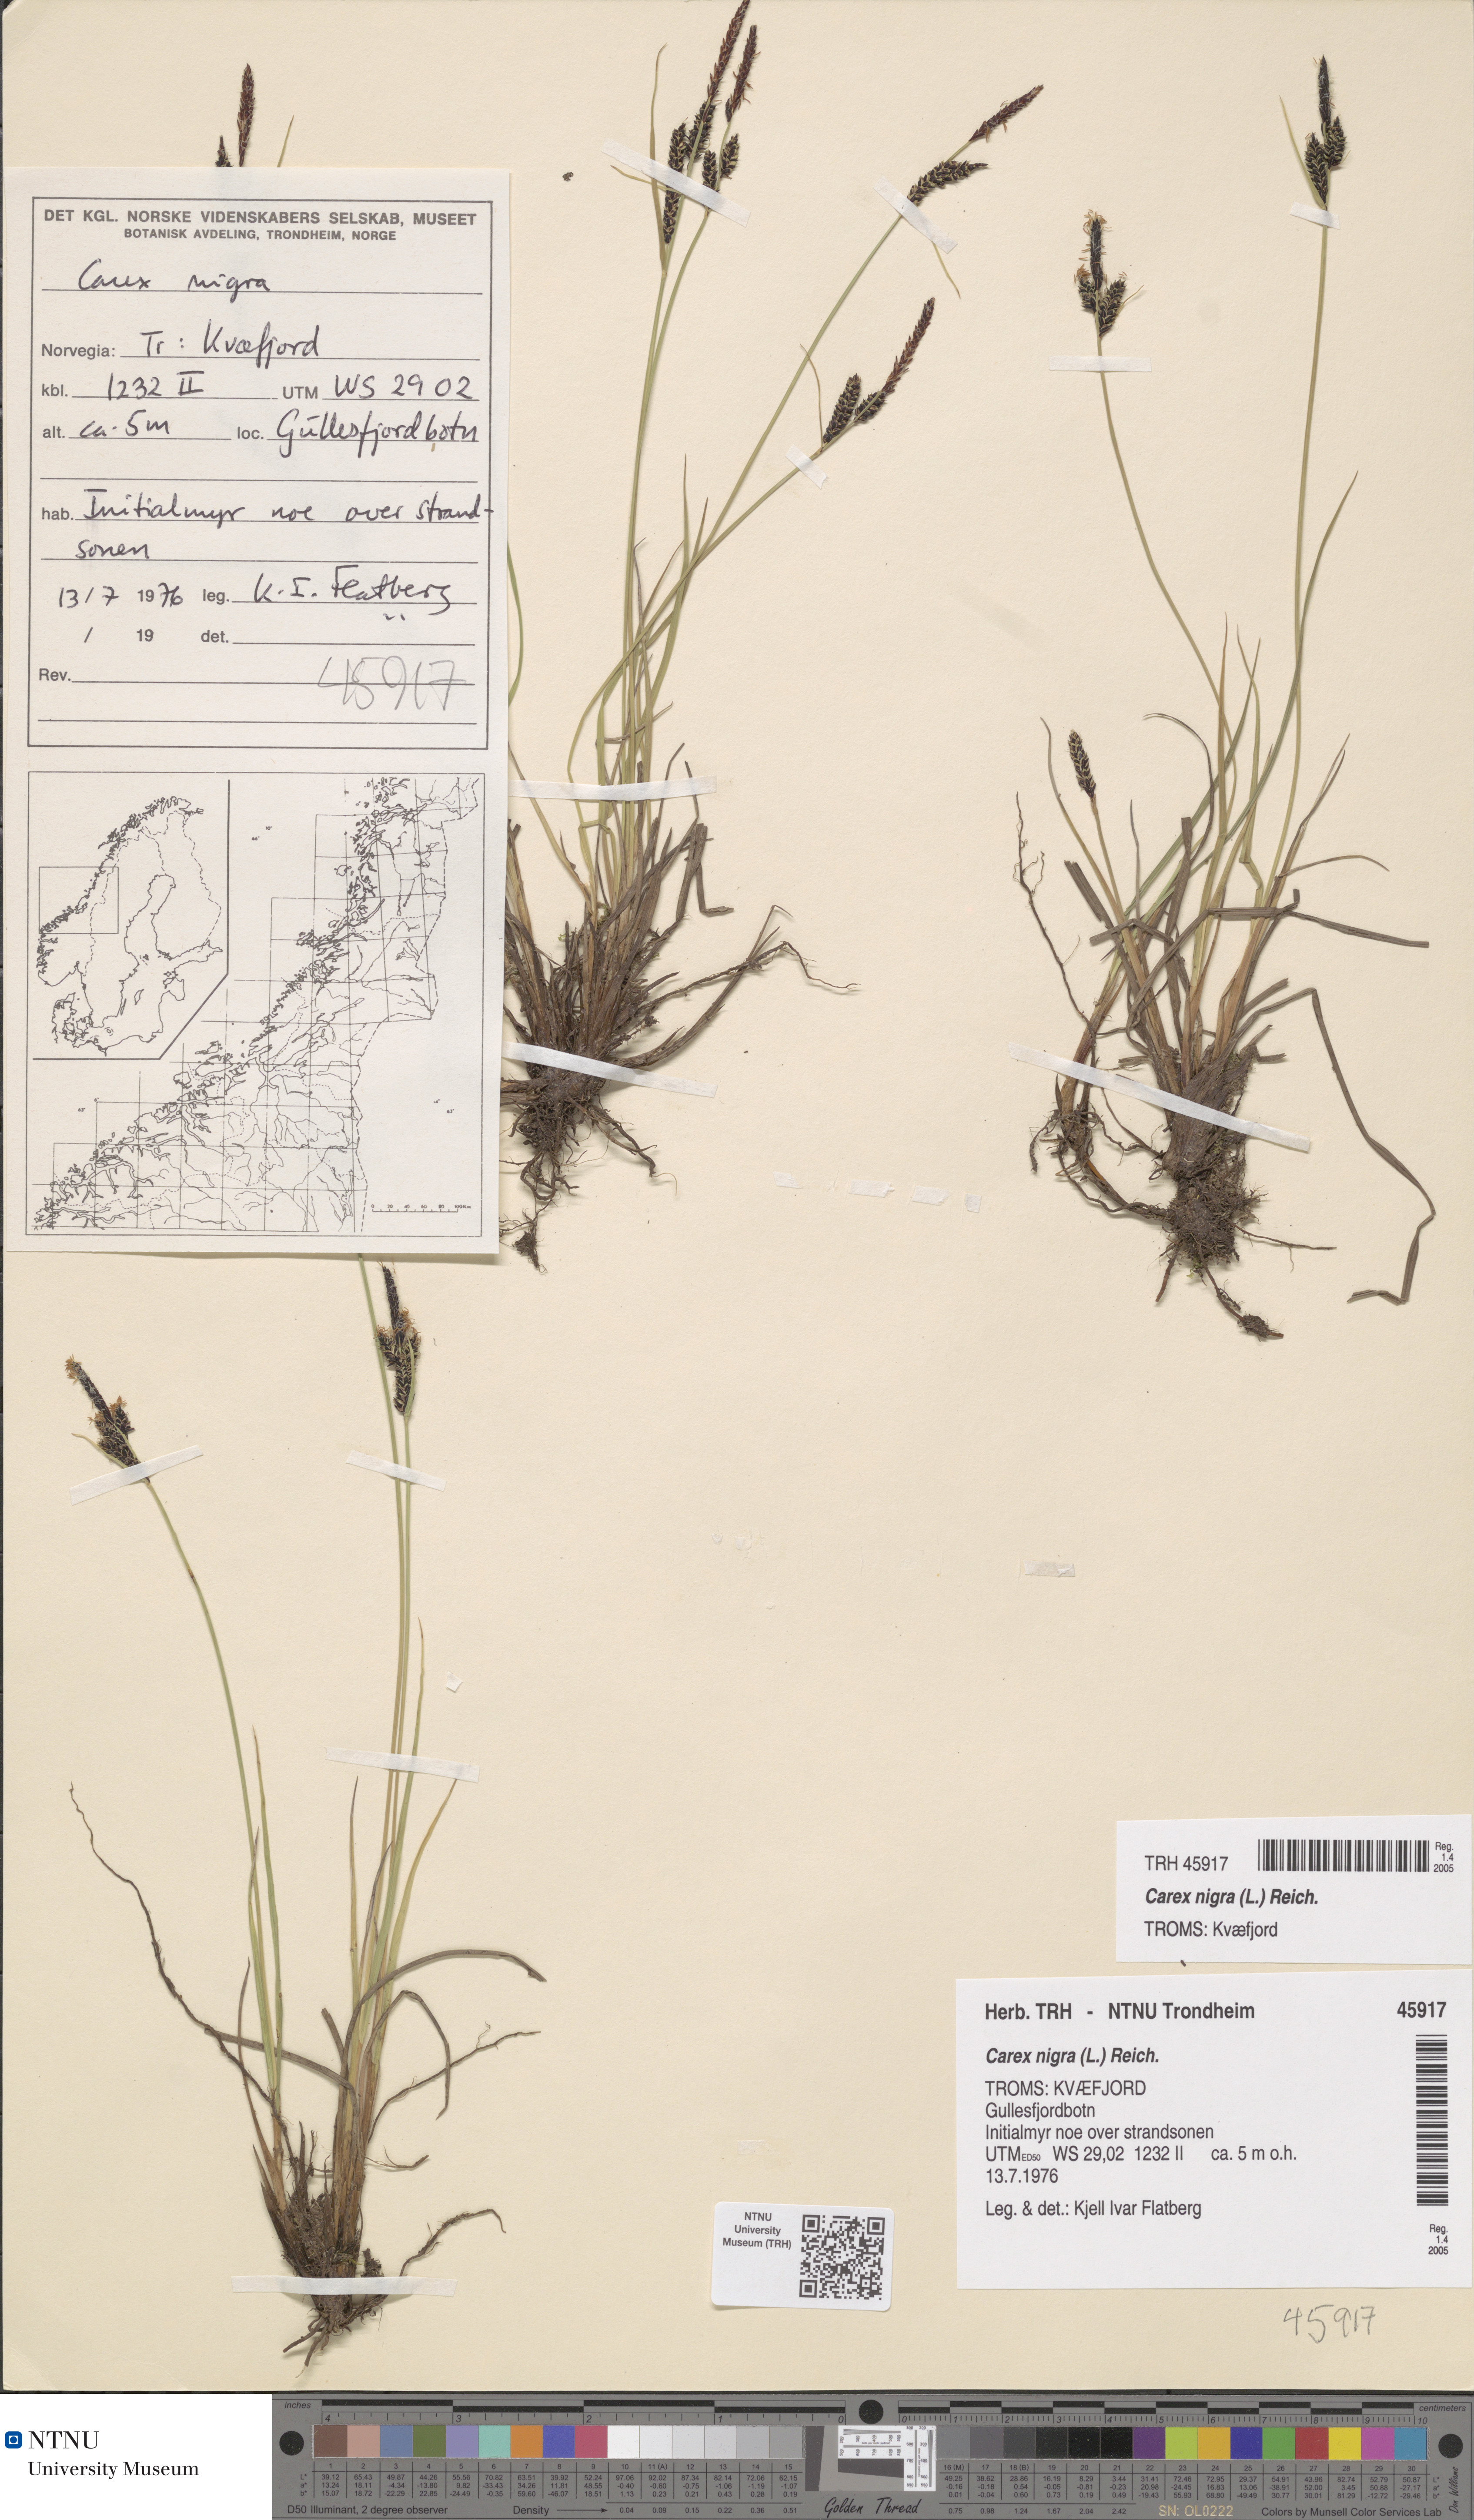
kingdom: Plantae
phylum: Tracheophyta
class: Liliopsida
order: Poales
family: Cyperaceae
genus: Carex
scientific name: Carex nigra
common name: Common sedge
